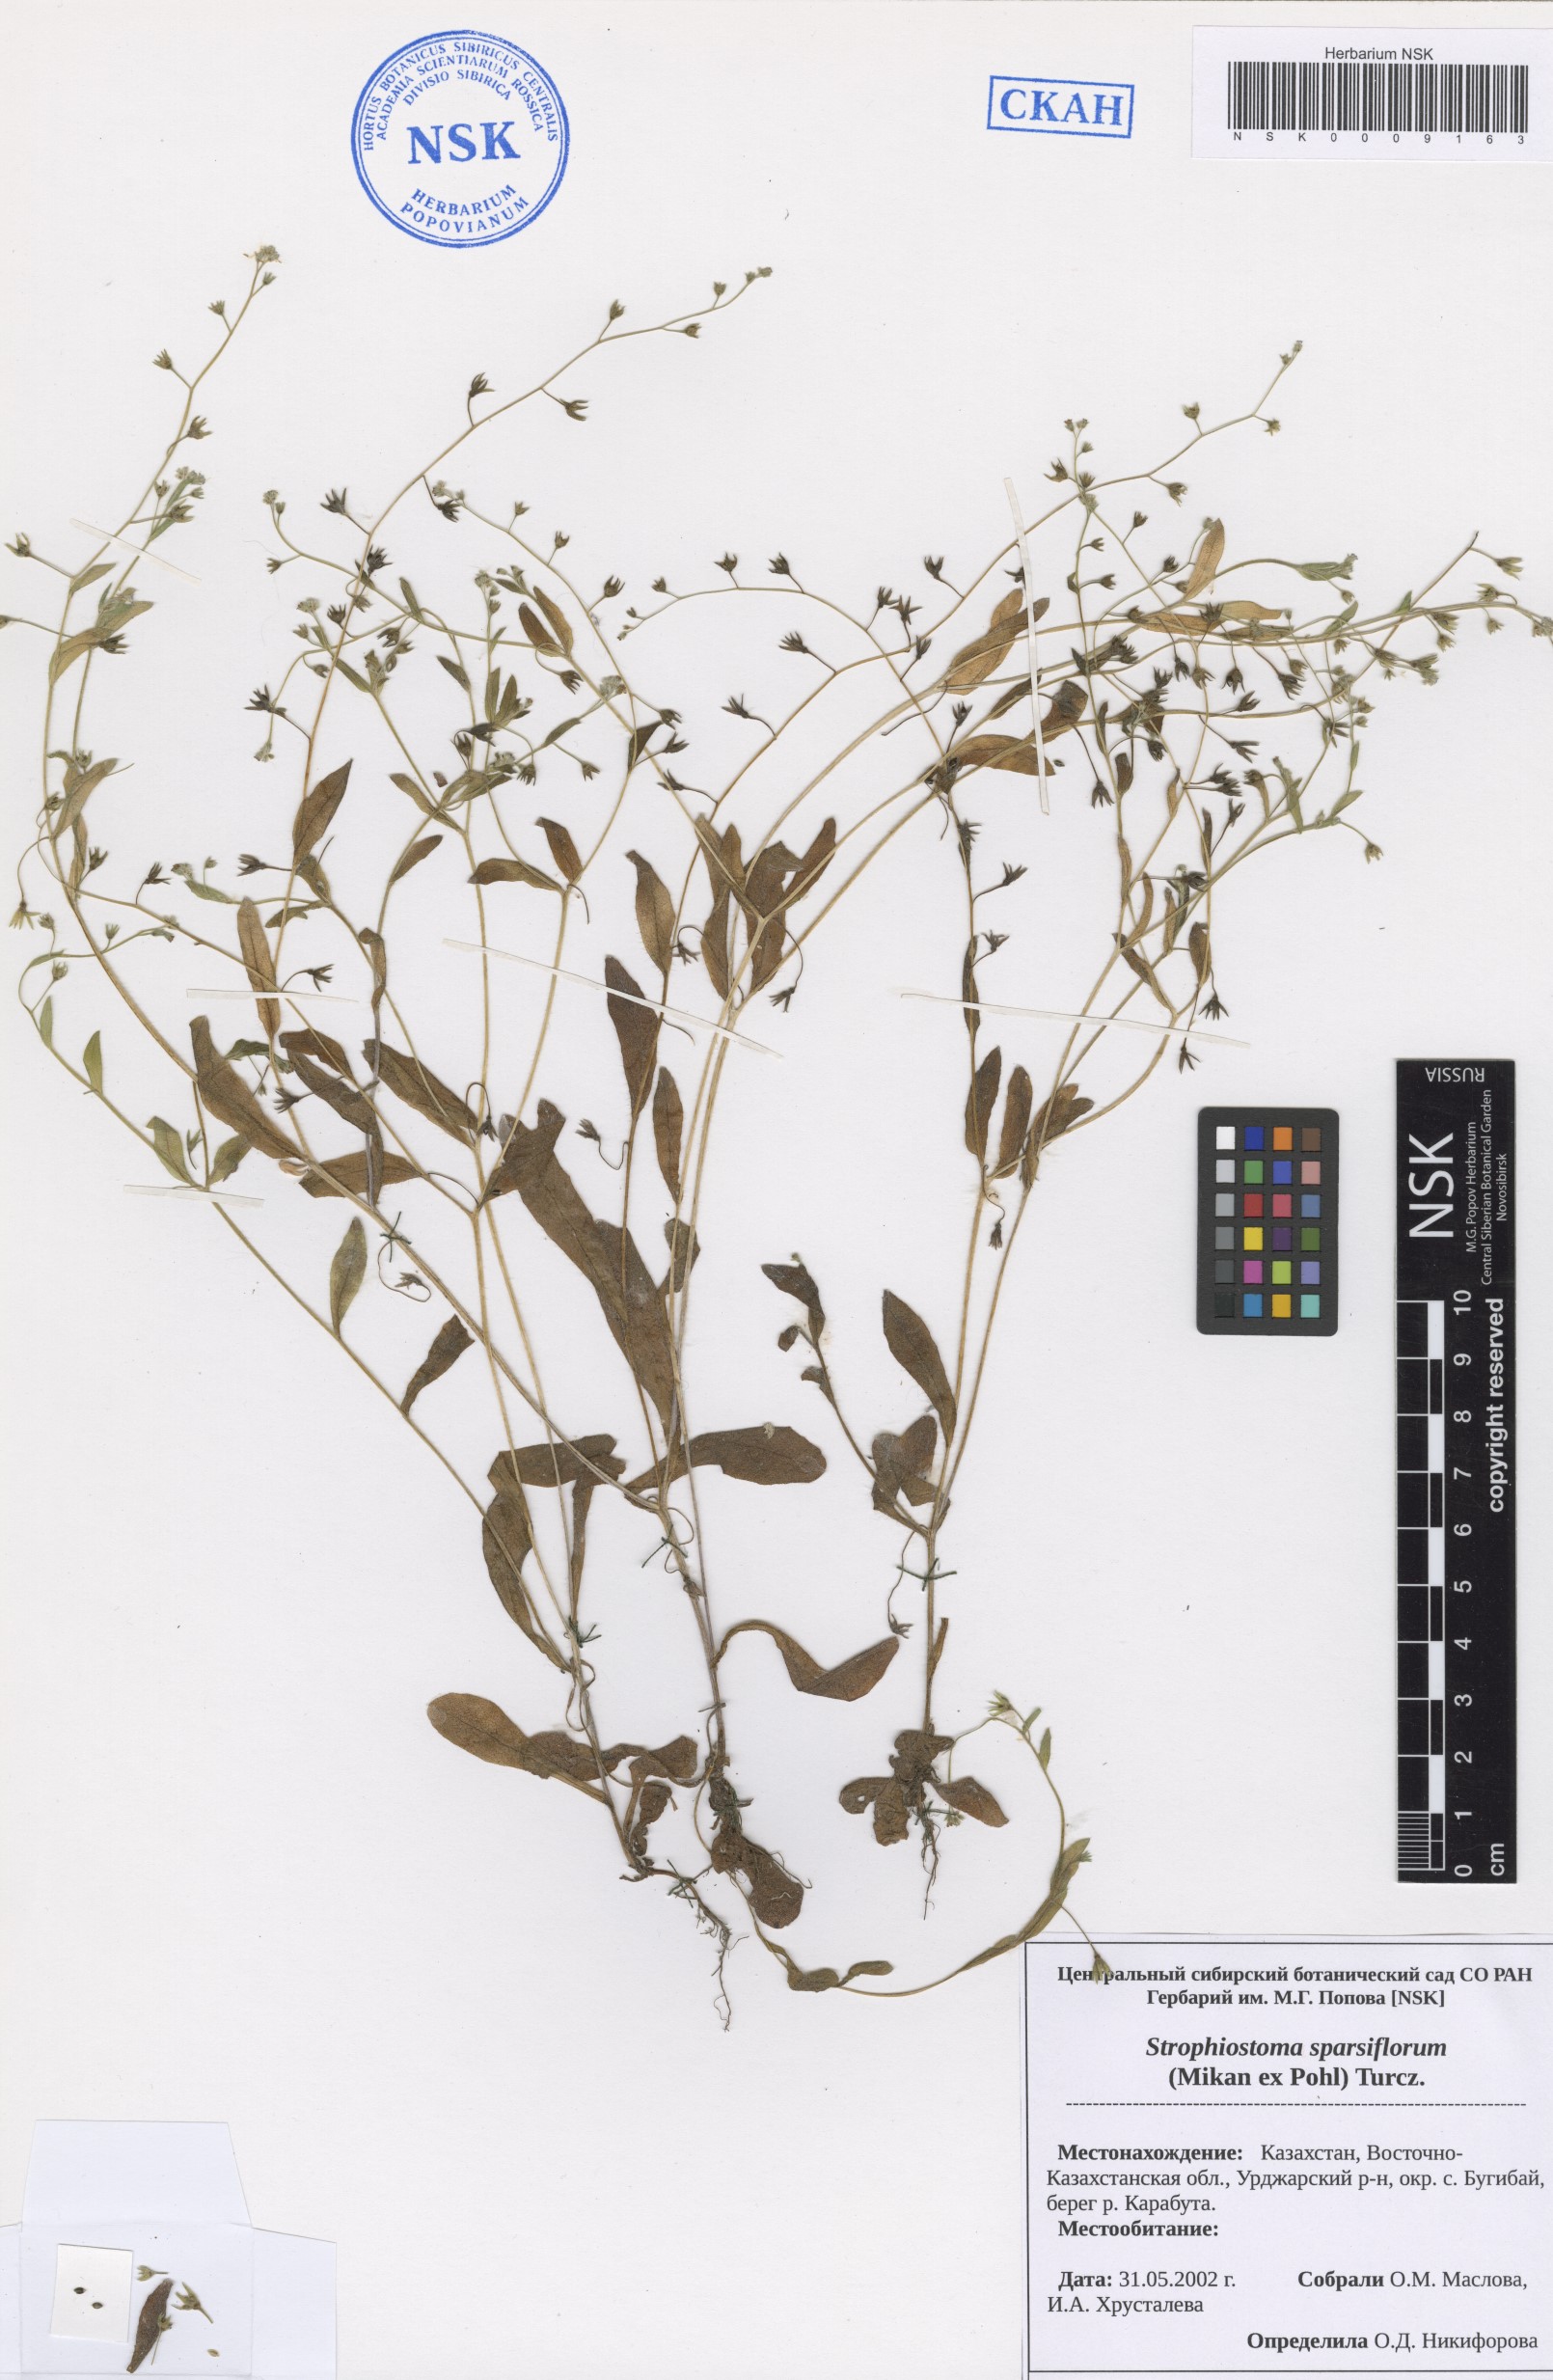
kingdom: Plantae
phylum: Tracheophyta
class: Magnoliopsida
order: Boraginales
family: Boraginaceae
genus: Myosotis
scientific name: Myosotis sparsiflora
